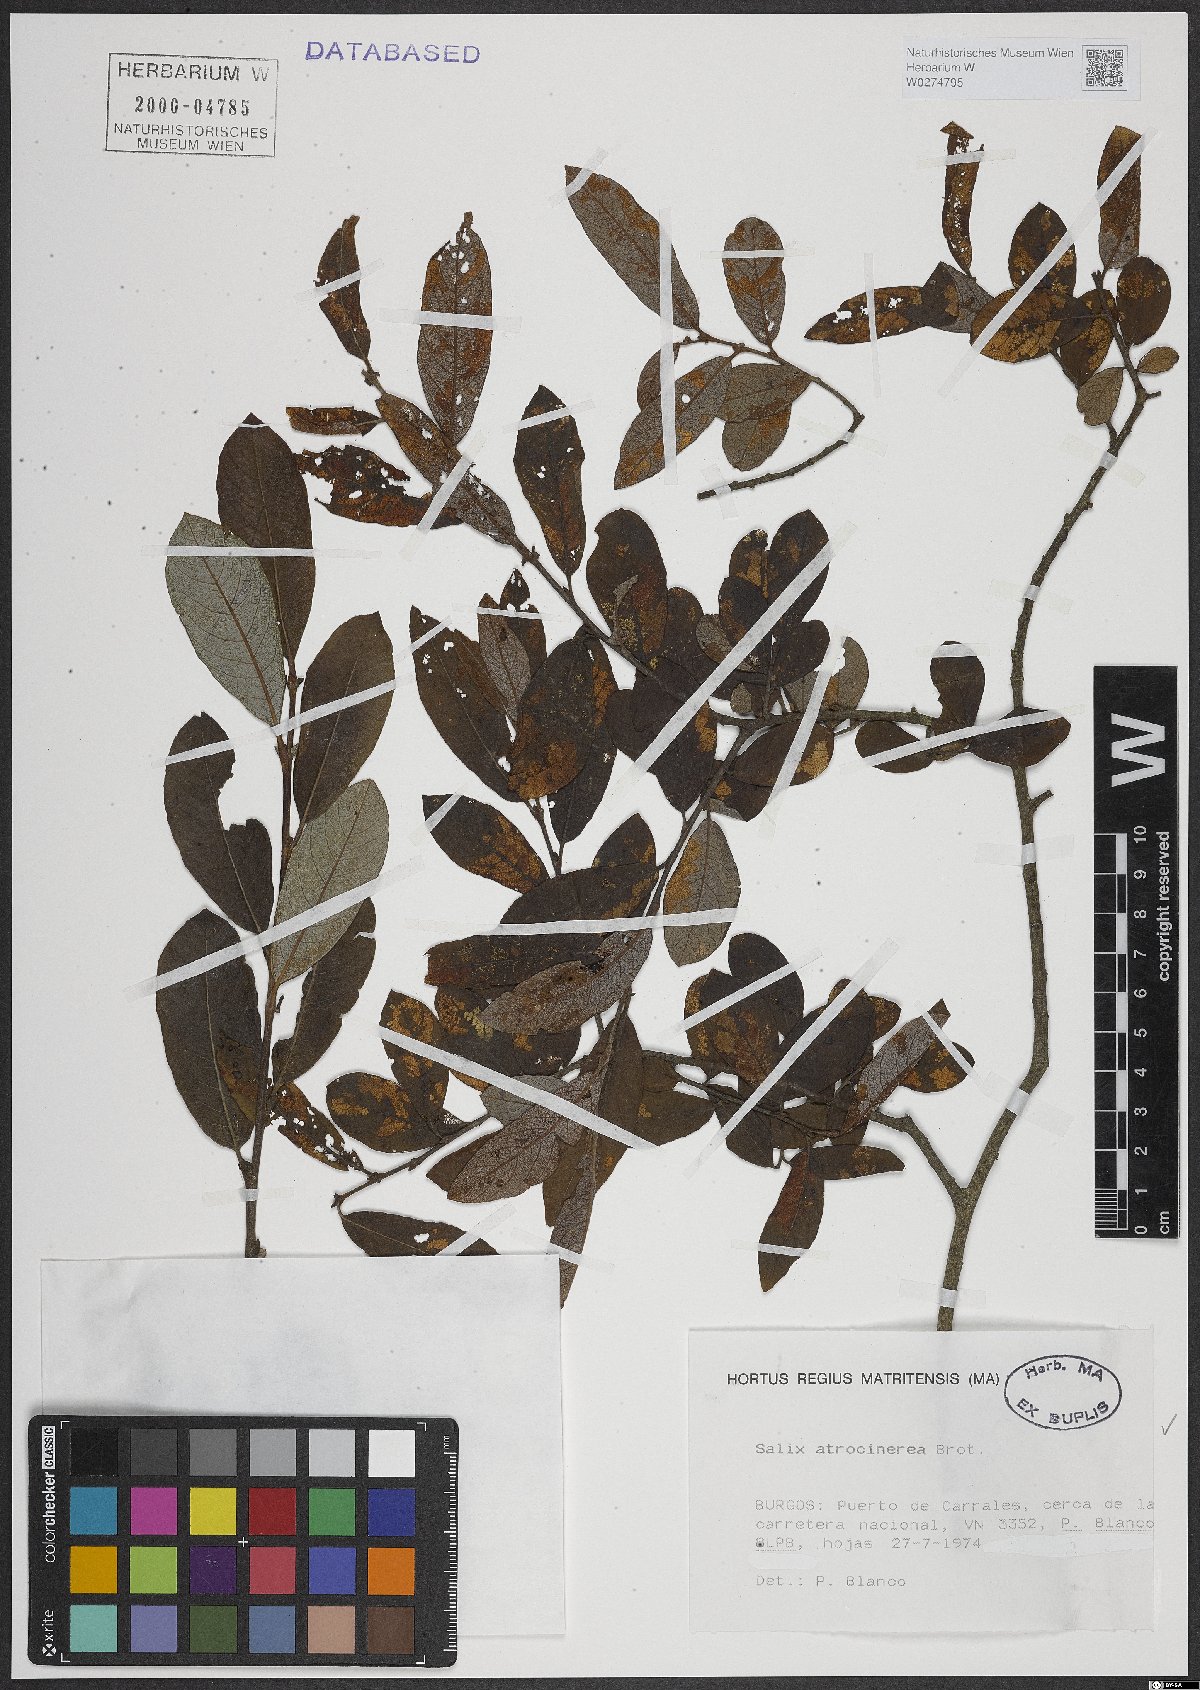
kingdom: Plantae
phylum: Tracheophyta
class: Magnoliopsida
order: Malpighiales
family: Salicaceae
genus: Salix
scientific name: Salix atrocinerea
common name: Rusty willow
